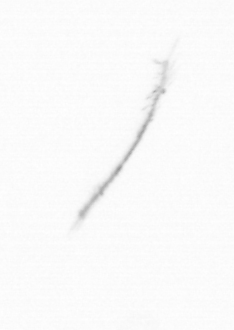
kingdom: Chromista
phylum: Ochrophyta
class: Bacillariophyceae
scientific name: Bacillariophyceae
